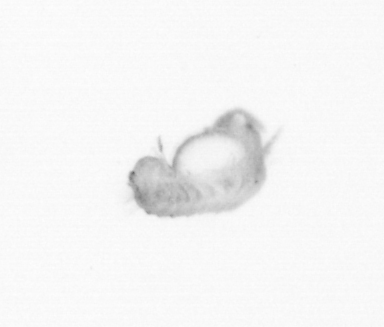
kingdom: Animalia
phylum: Annelida
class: Polychaeta
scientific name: Polychaeta
